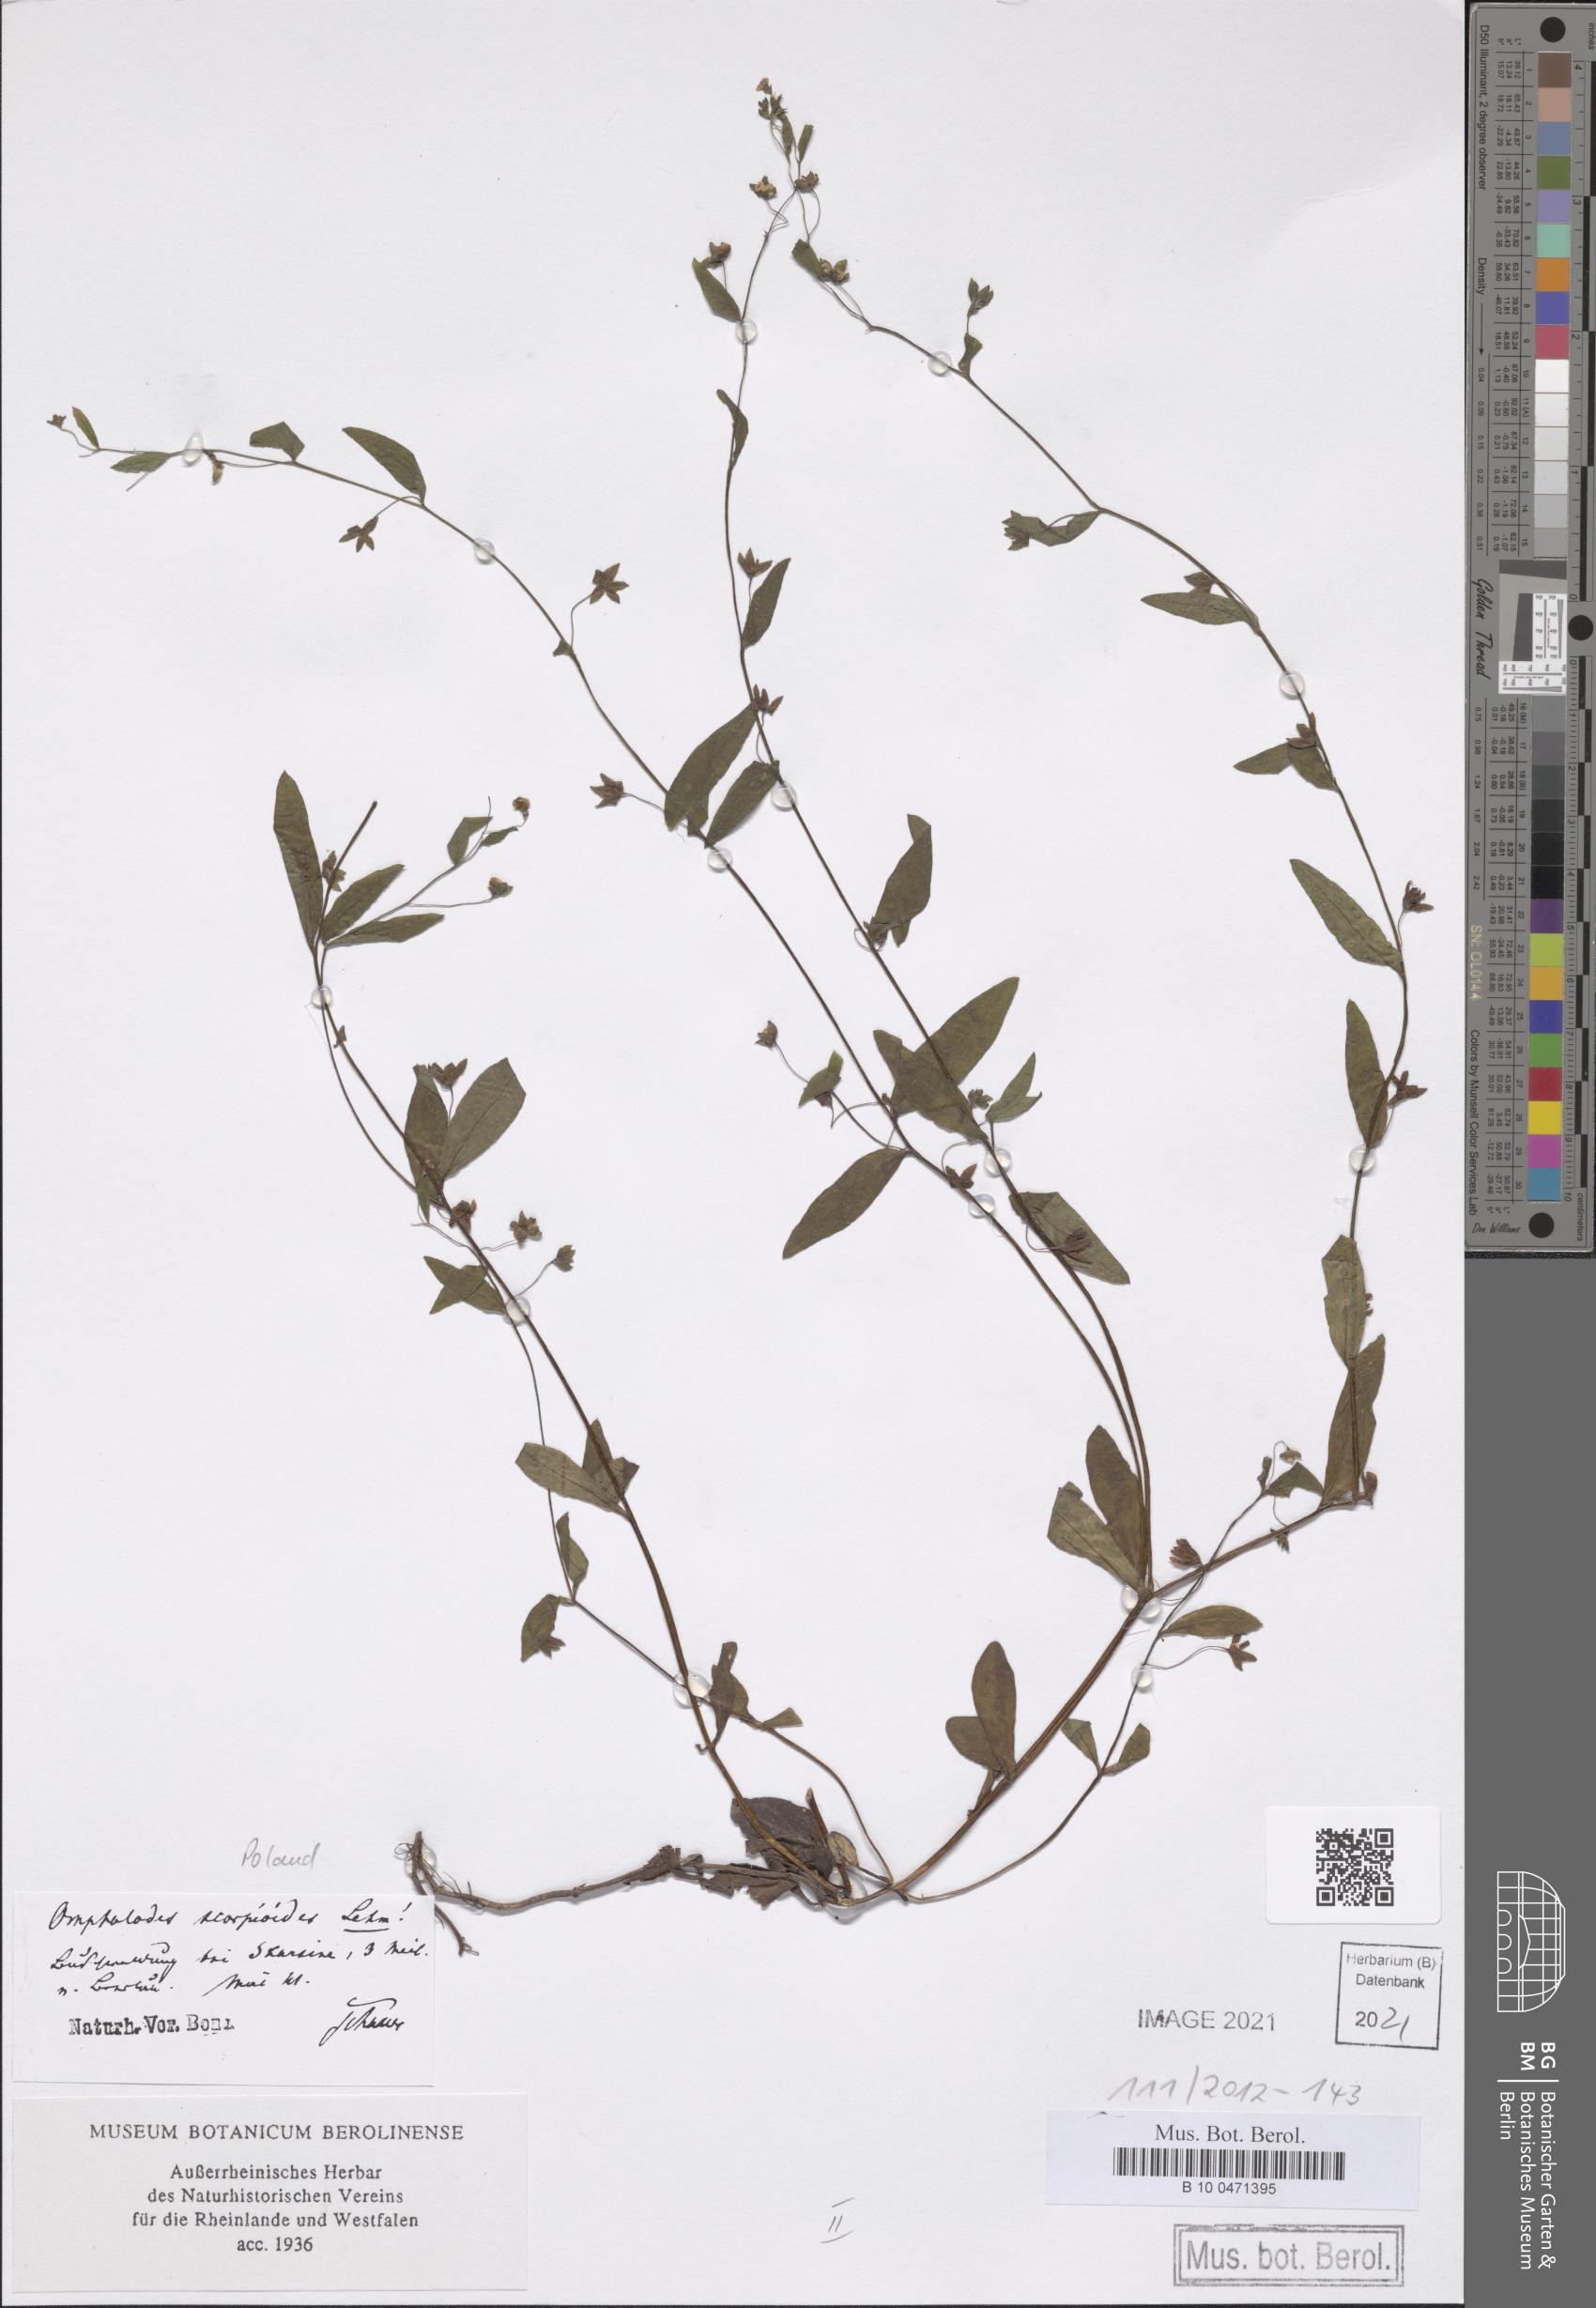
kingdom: Plantae
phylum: Tracheophyta
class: Magnoliopsida
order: Boraginales
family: Boraginaceae
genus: Memoremea
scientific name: Memoremea scorpioides
